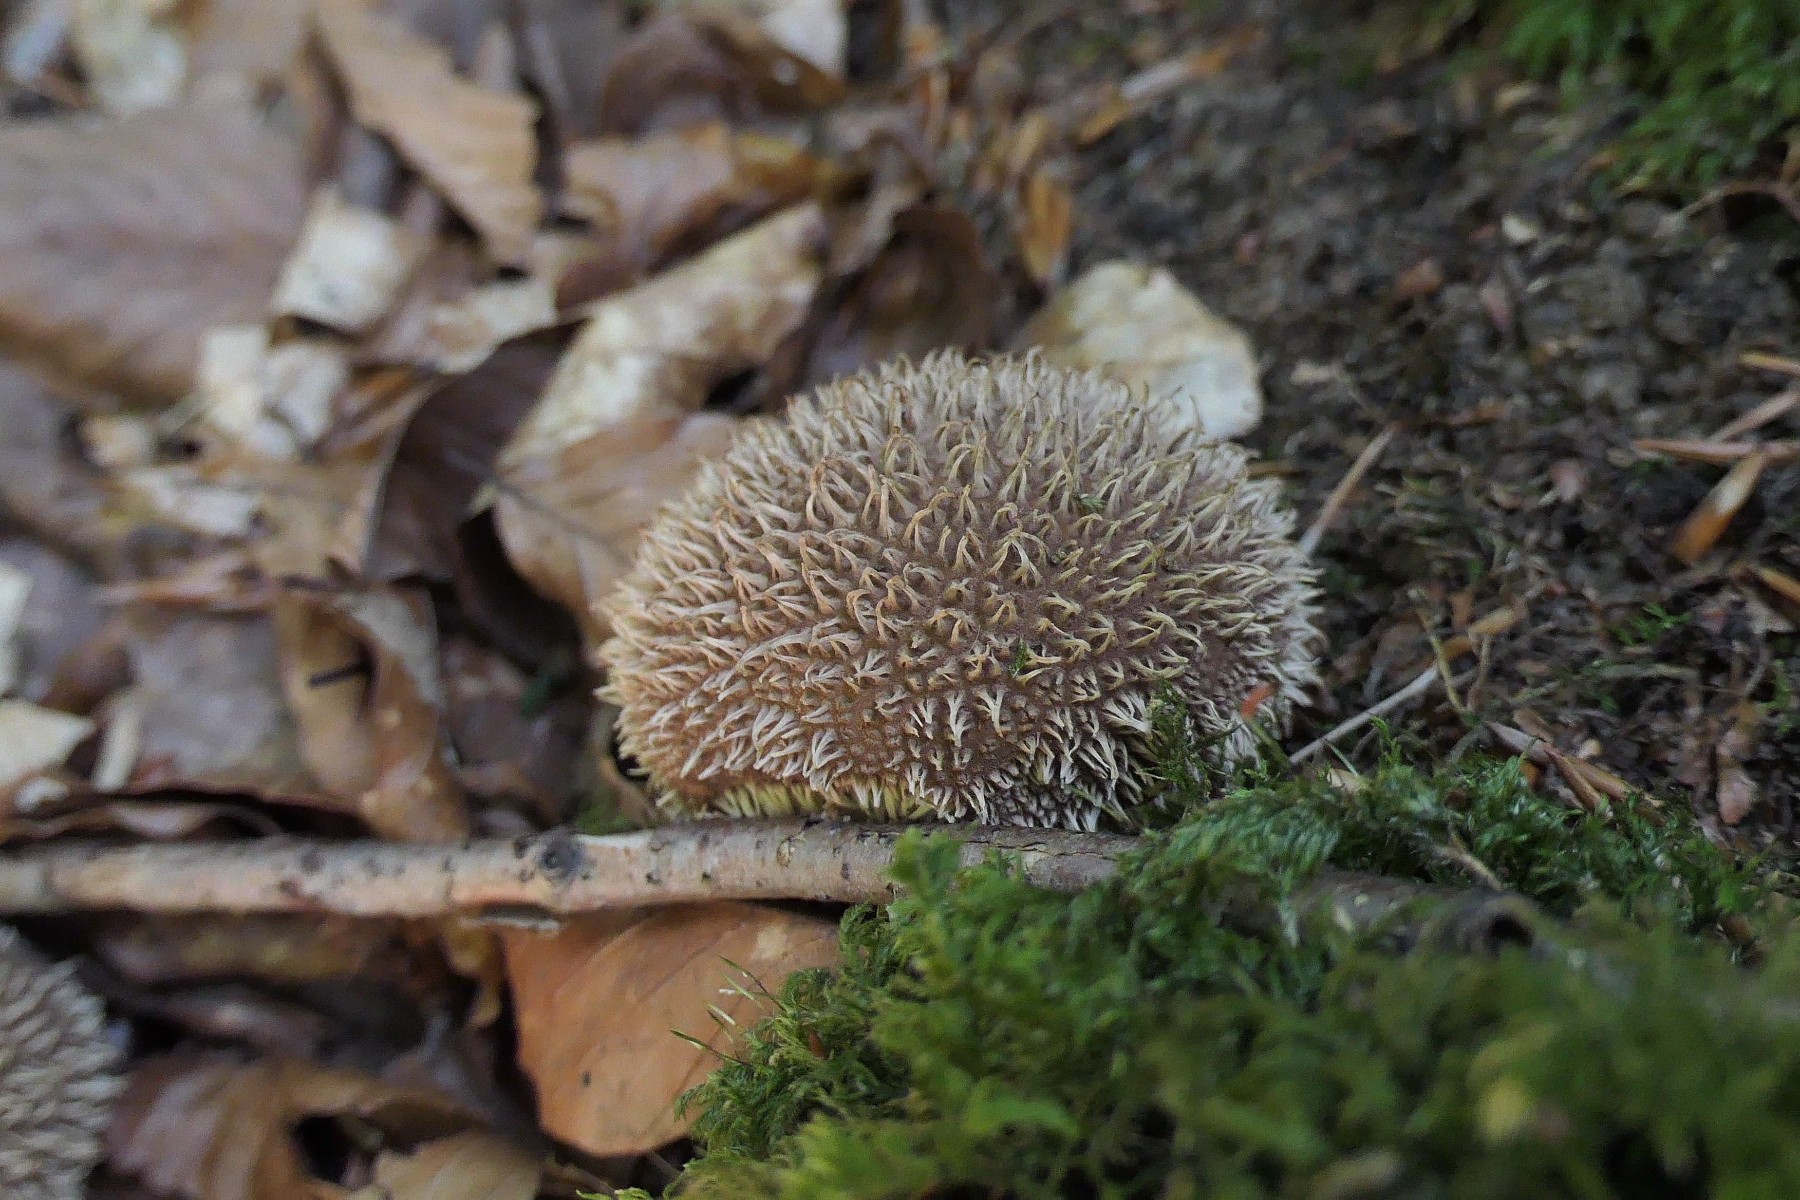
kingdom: Fungi
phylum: Basidiomycota
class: Agaricomycetes
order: Agaricales
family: Lycoperdaceae
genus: Lycoperdon
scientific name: Lycoperdon echinatum
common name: pindsvine-støvbold
